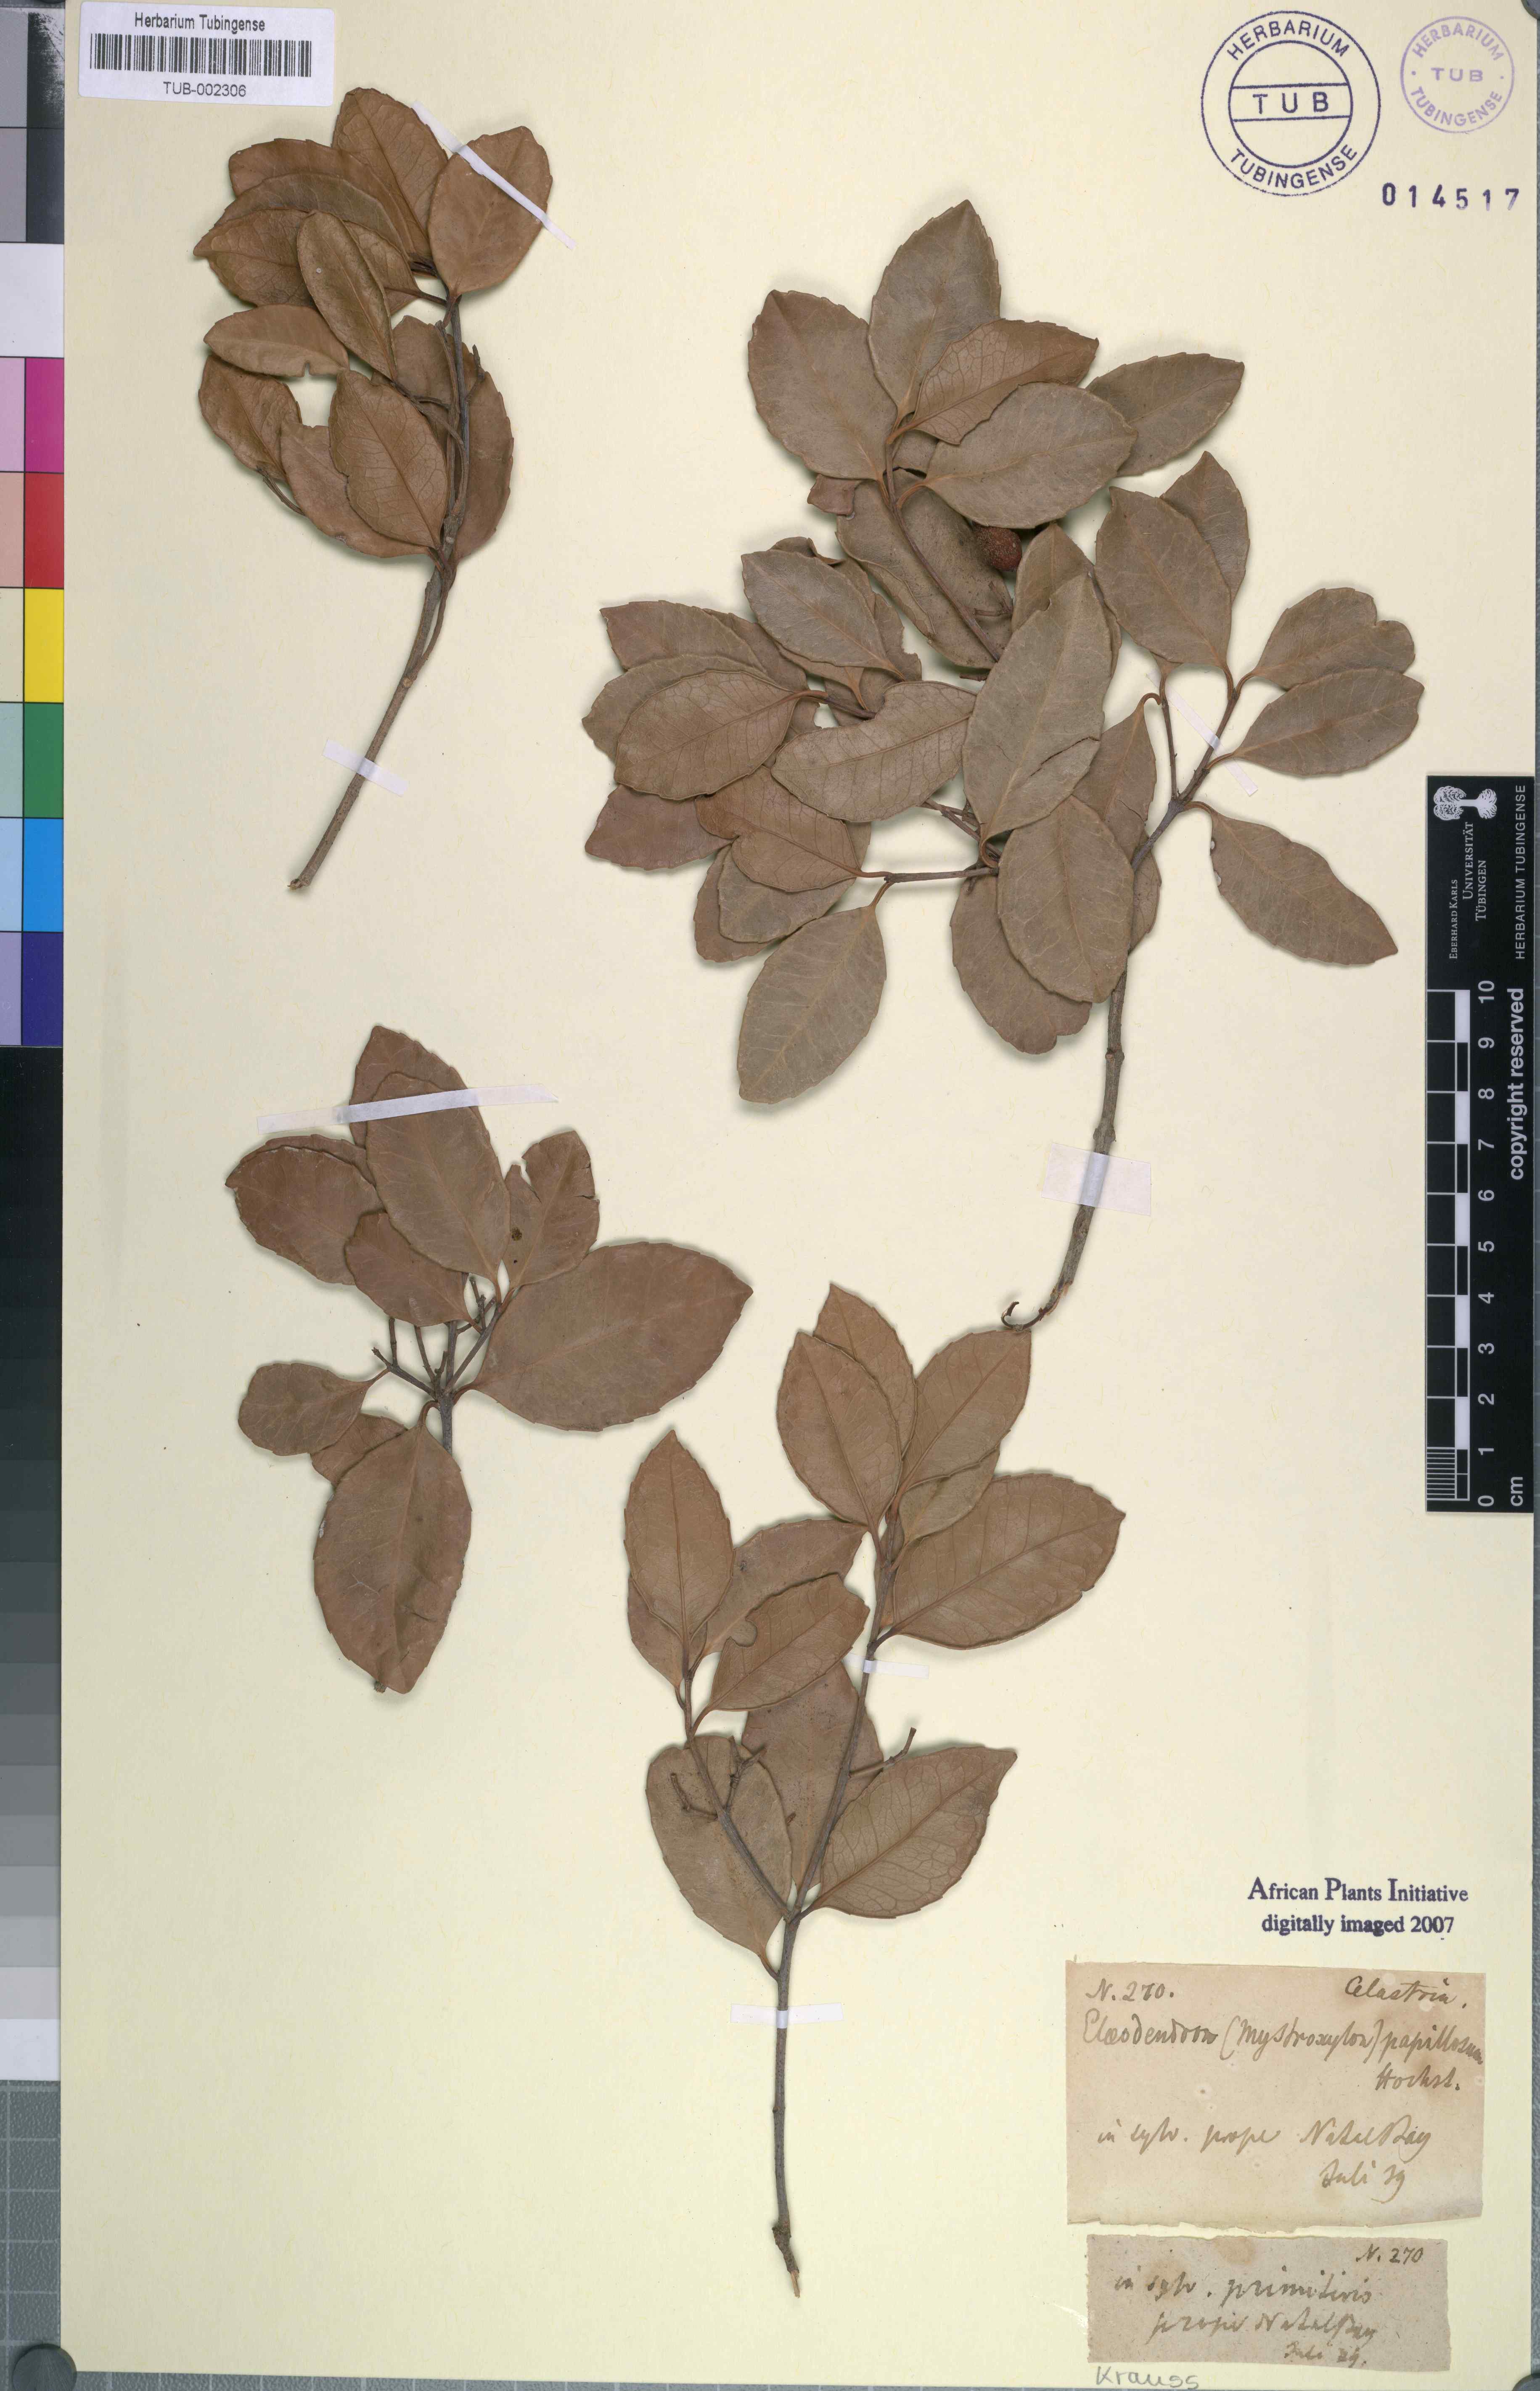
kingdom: Plantae
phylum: Tracheophyta
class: Magnoliopsida
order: Celastrales
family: Celastraceae
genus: Elaeodendron
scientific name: Elaeodendron croceum
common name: Saffron
